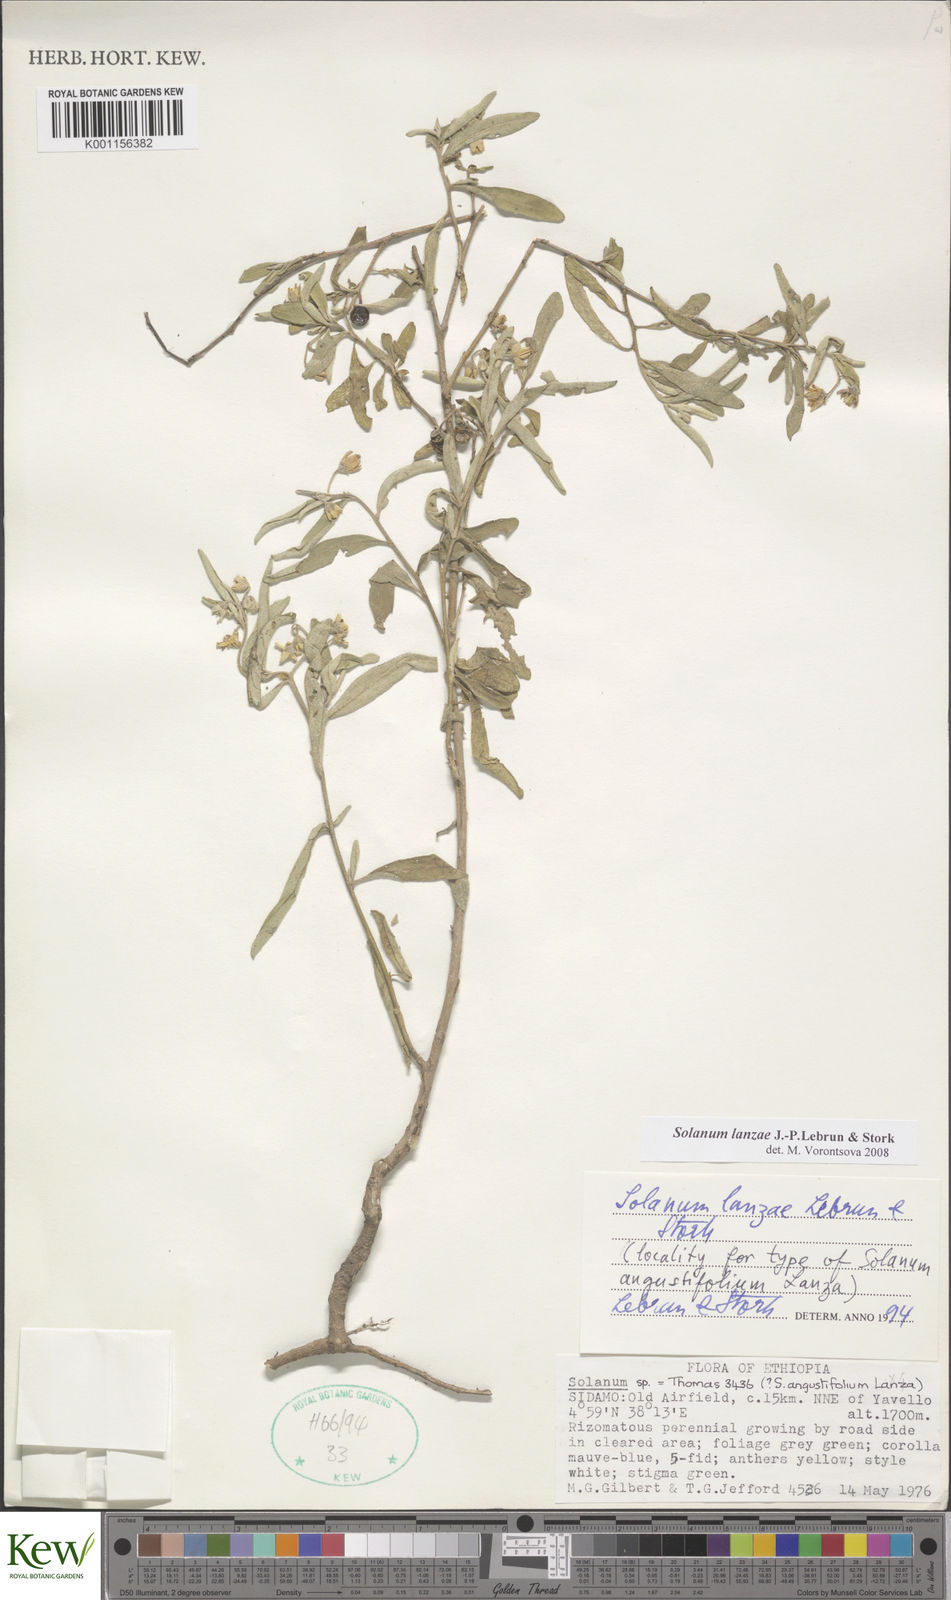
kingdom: Plantae
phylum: Tracheophyta
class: Magnoliopsida
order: Solanales
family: Solanaceae
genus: Solanum
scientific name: Solanum lanzae
